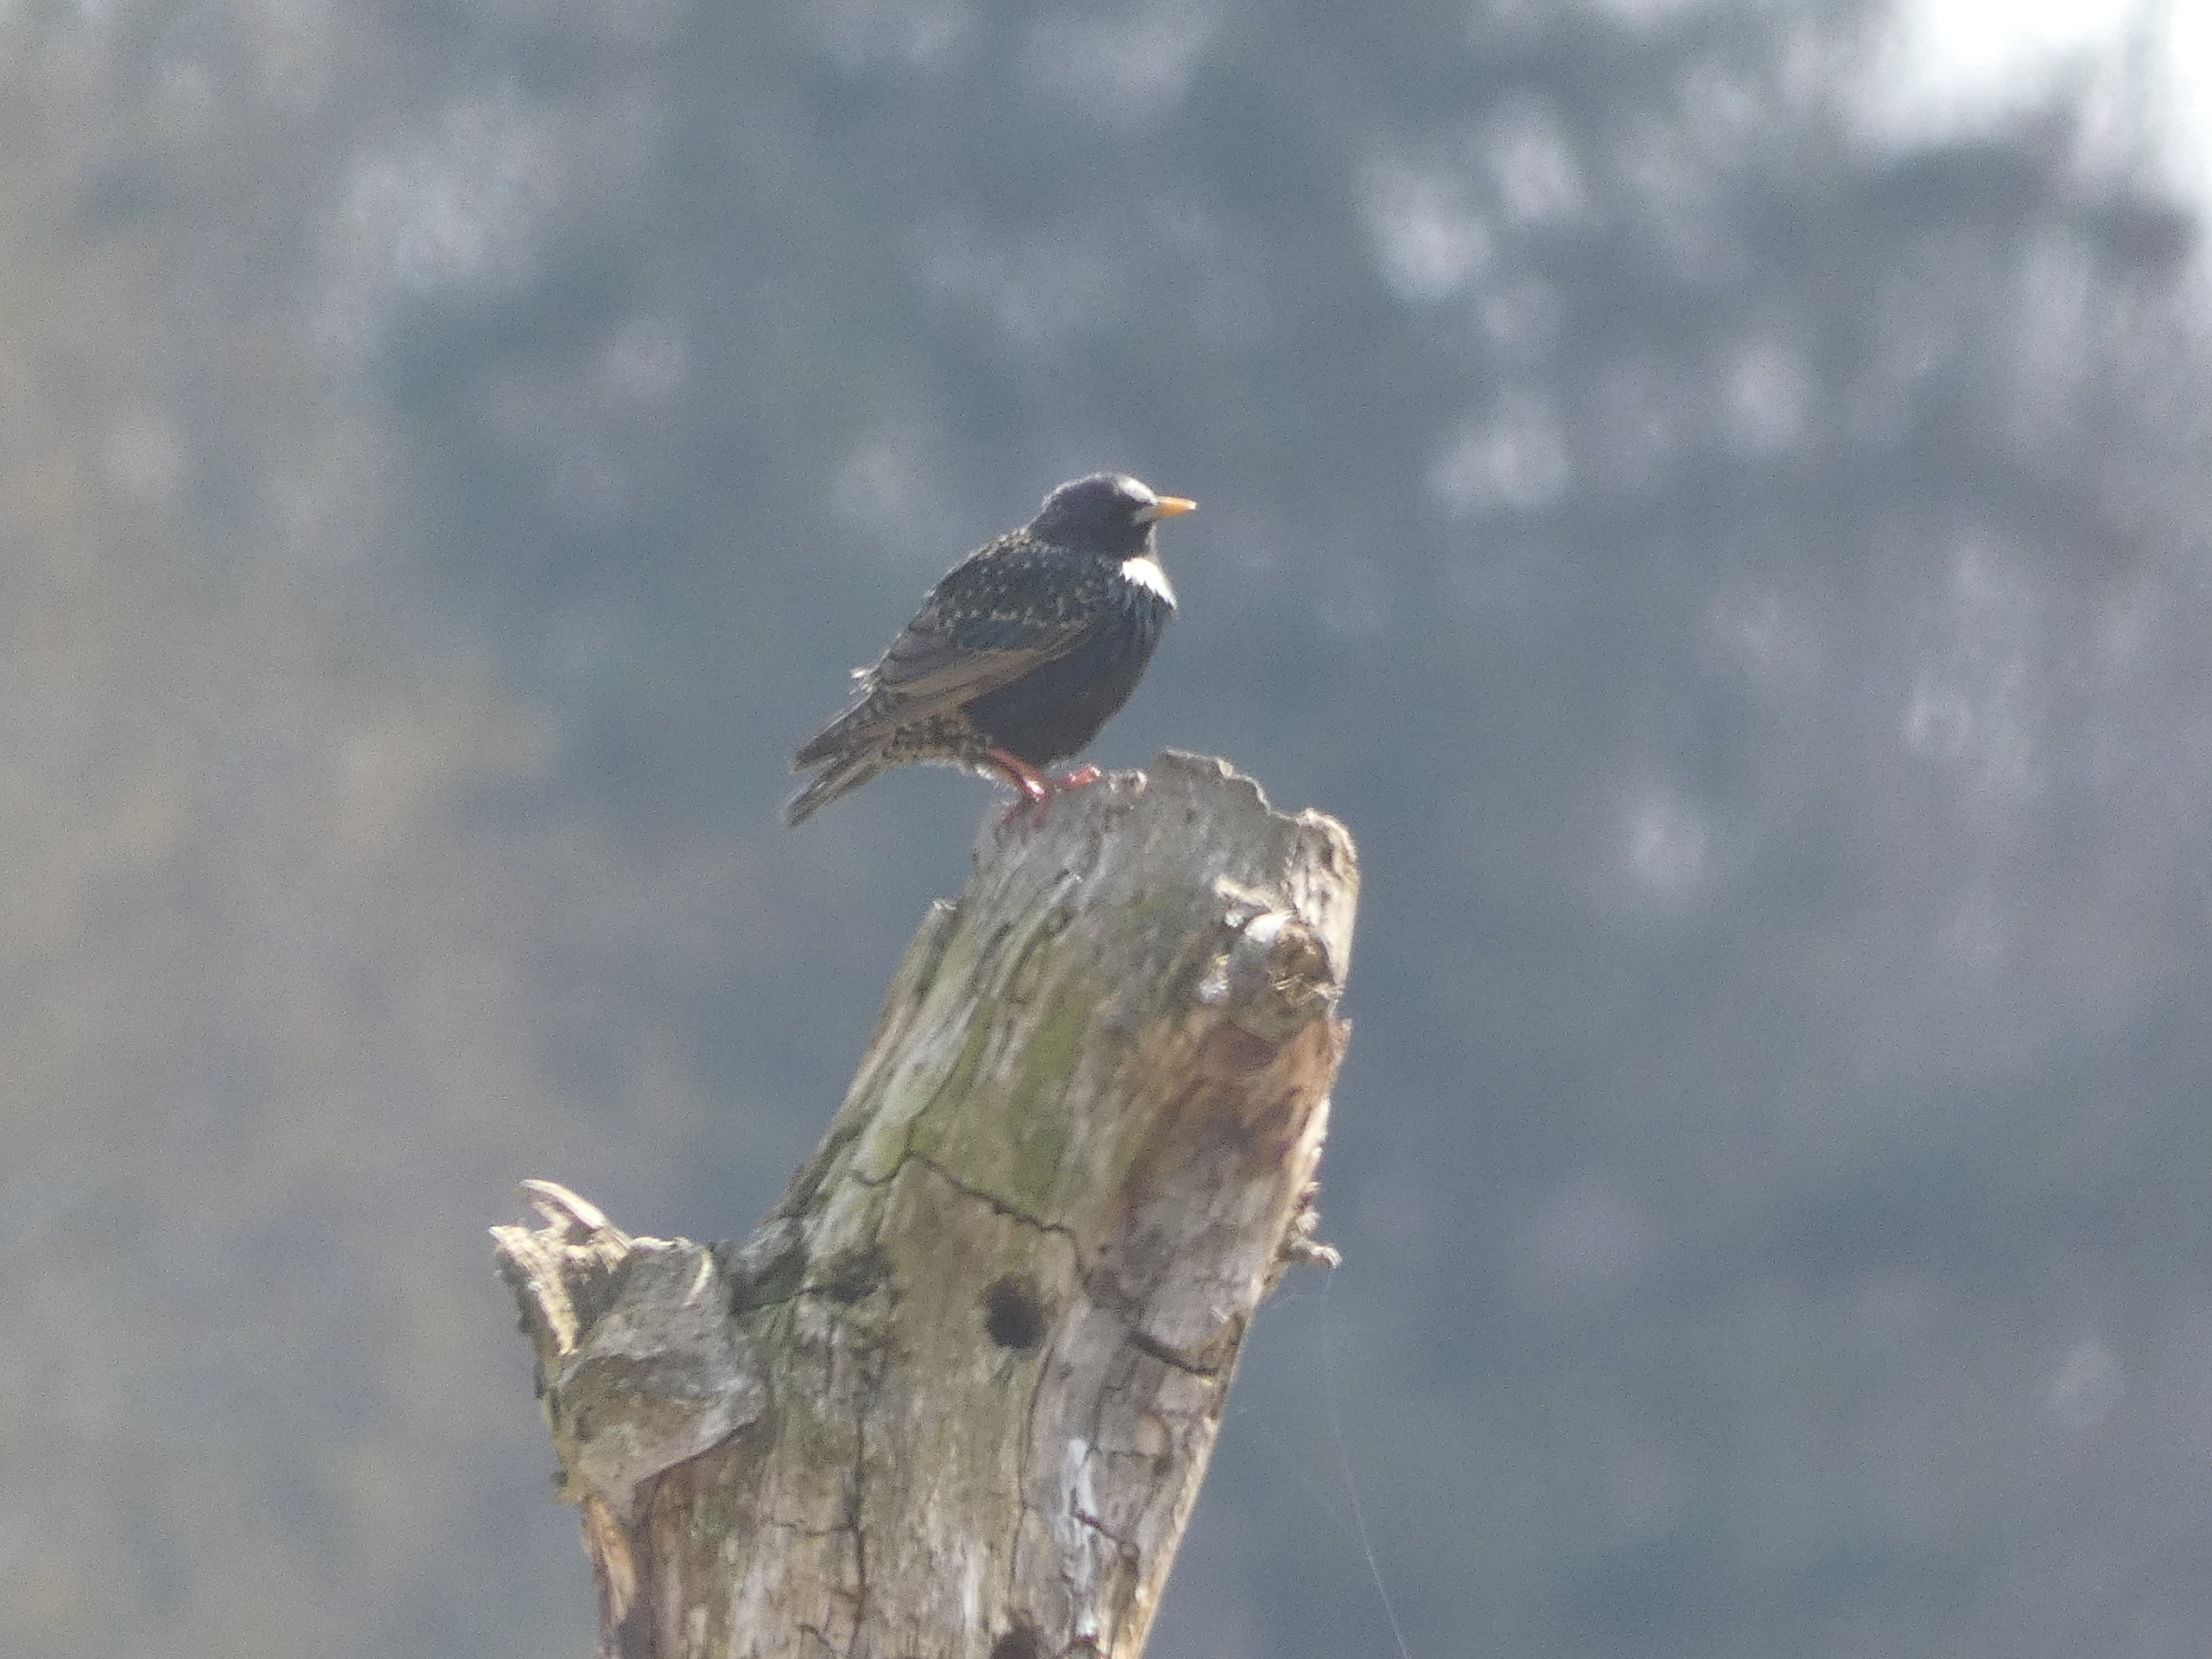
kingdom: Animalia
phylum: Chordata
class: Aves
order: Passeriformes
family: Sturnidae
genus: Sturnus
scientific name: Sturnus vulgaris
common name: Stær
